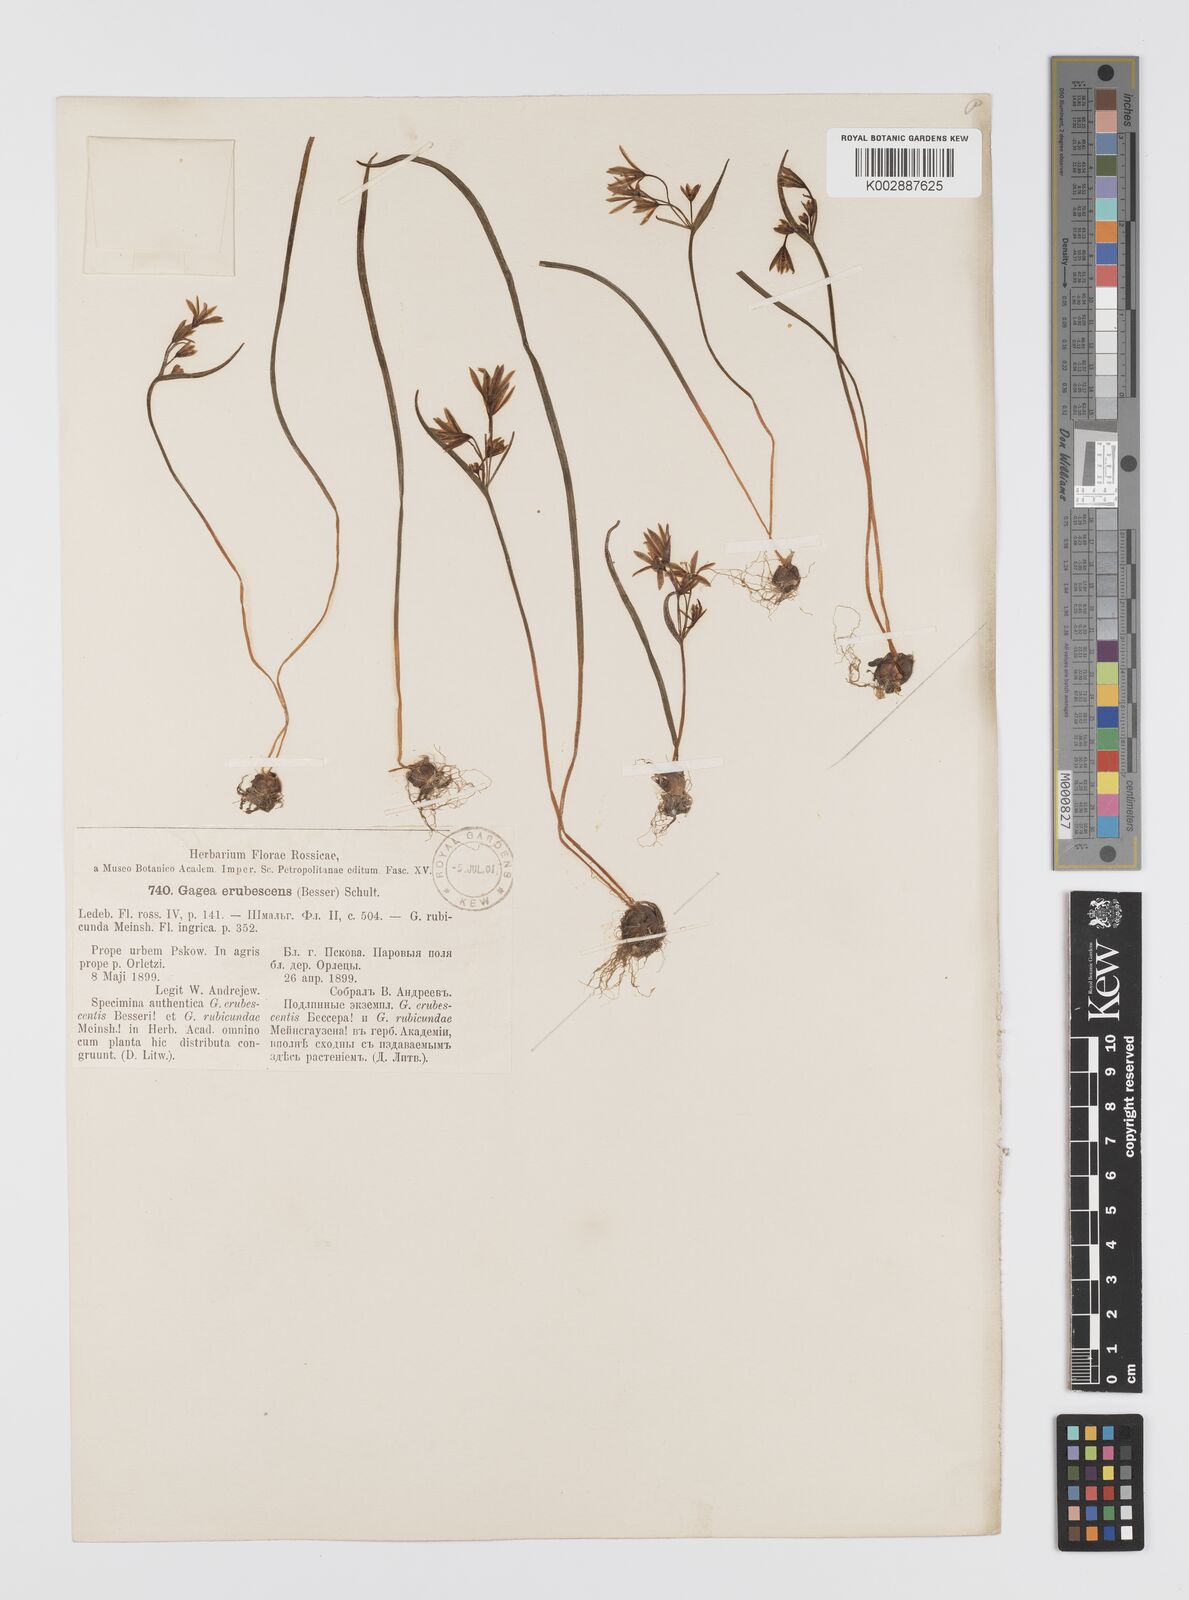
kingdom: Plantae
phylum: Tracheophyta
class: Liliopsida
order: Liliales
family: Liliaceae
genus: Gagea
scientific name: Gagea fragifera
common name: Lily
